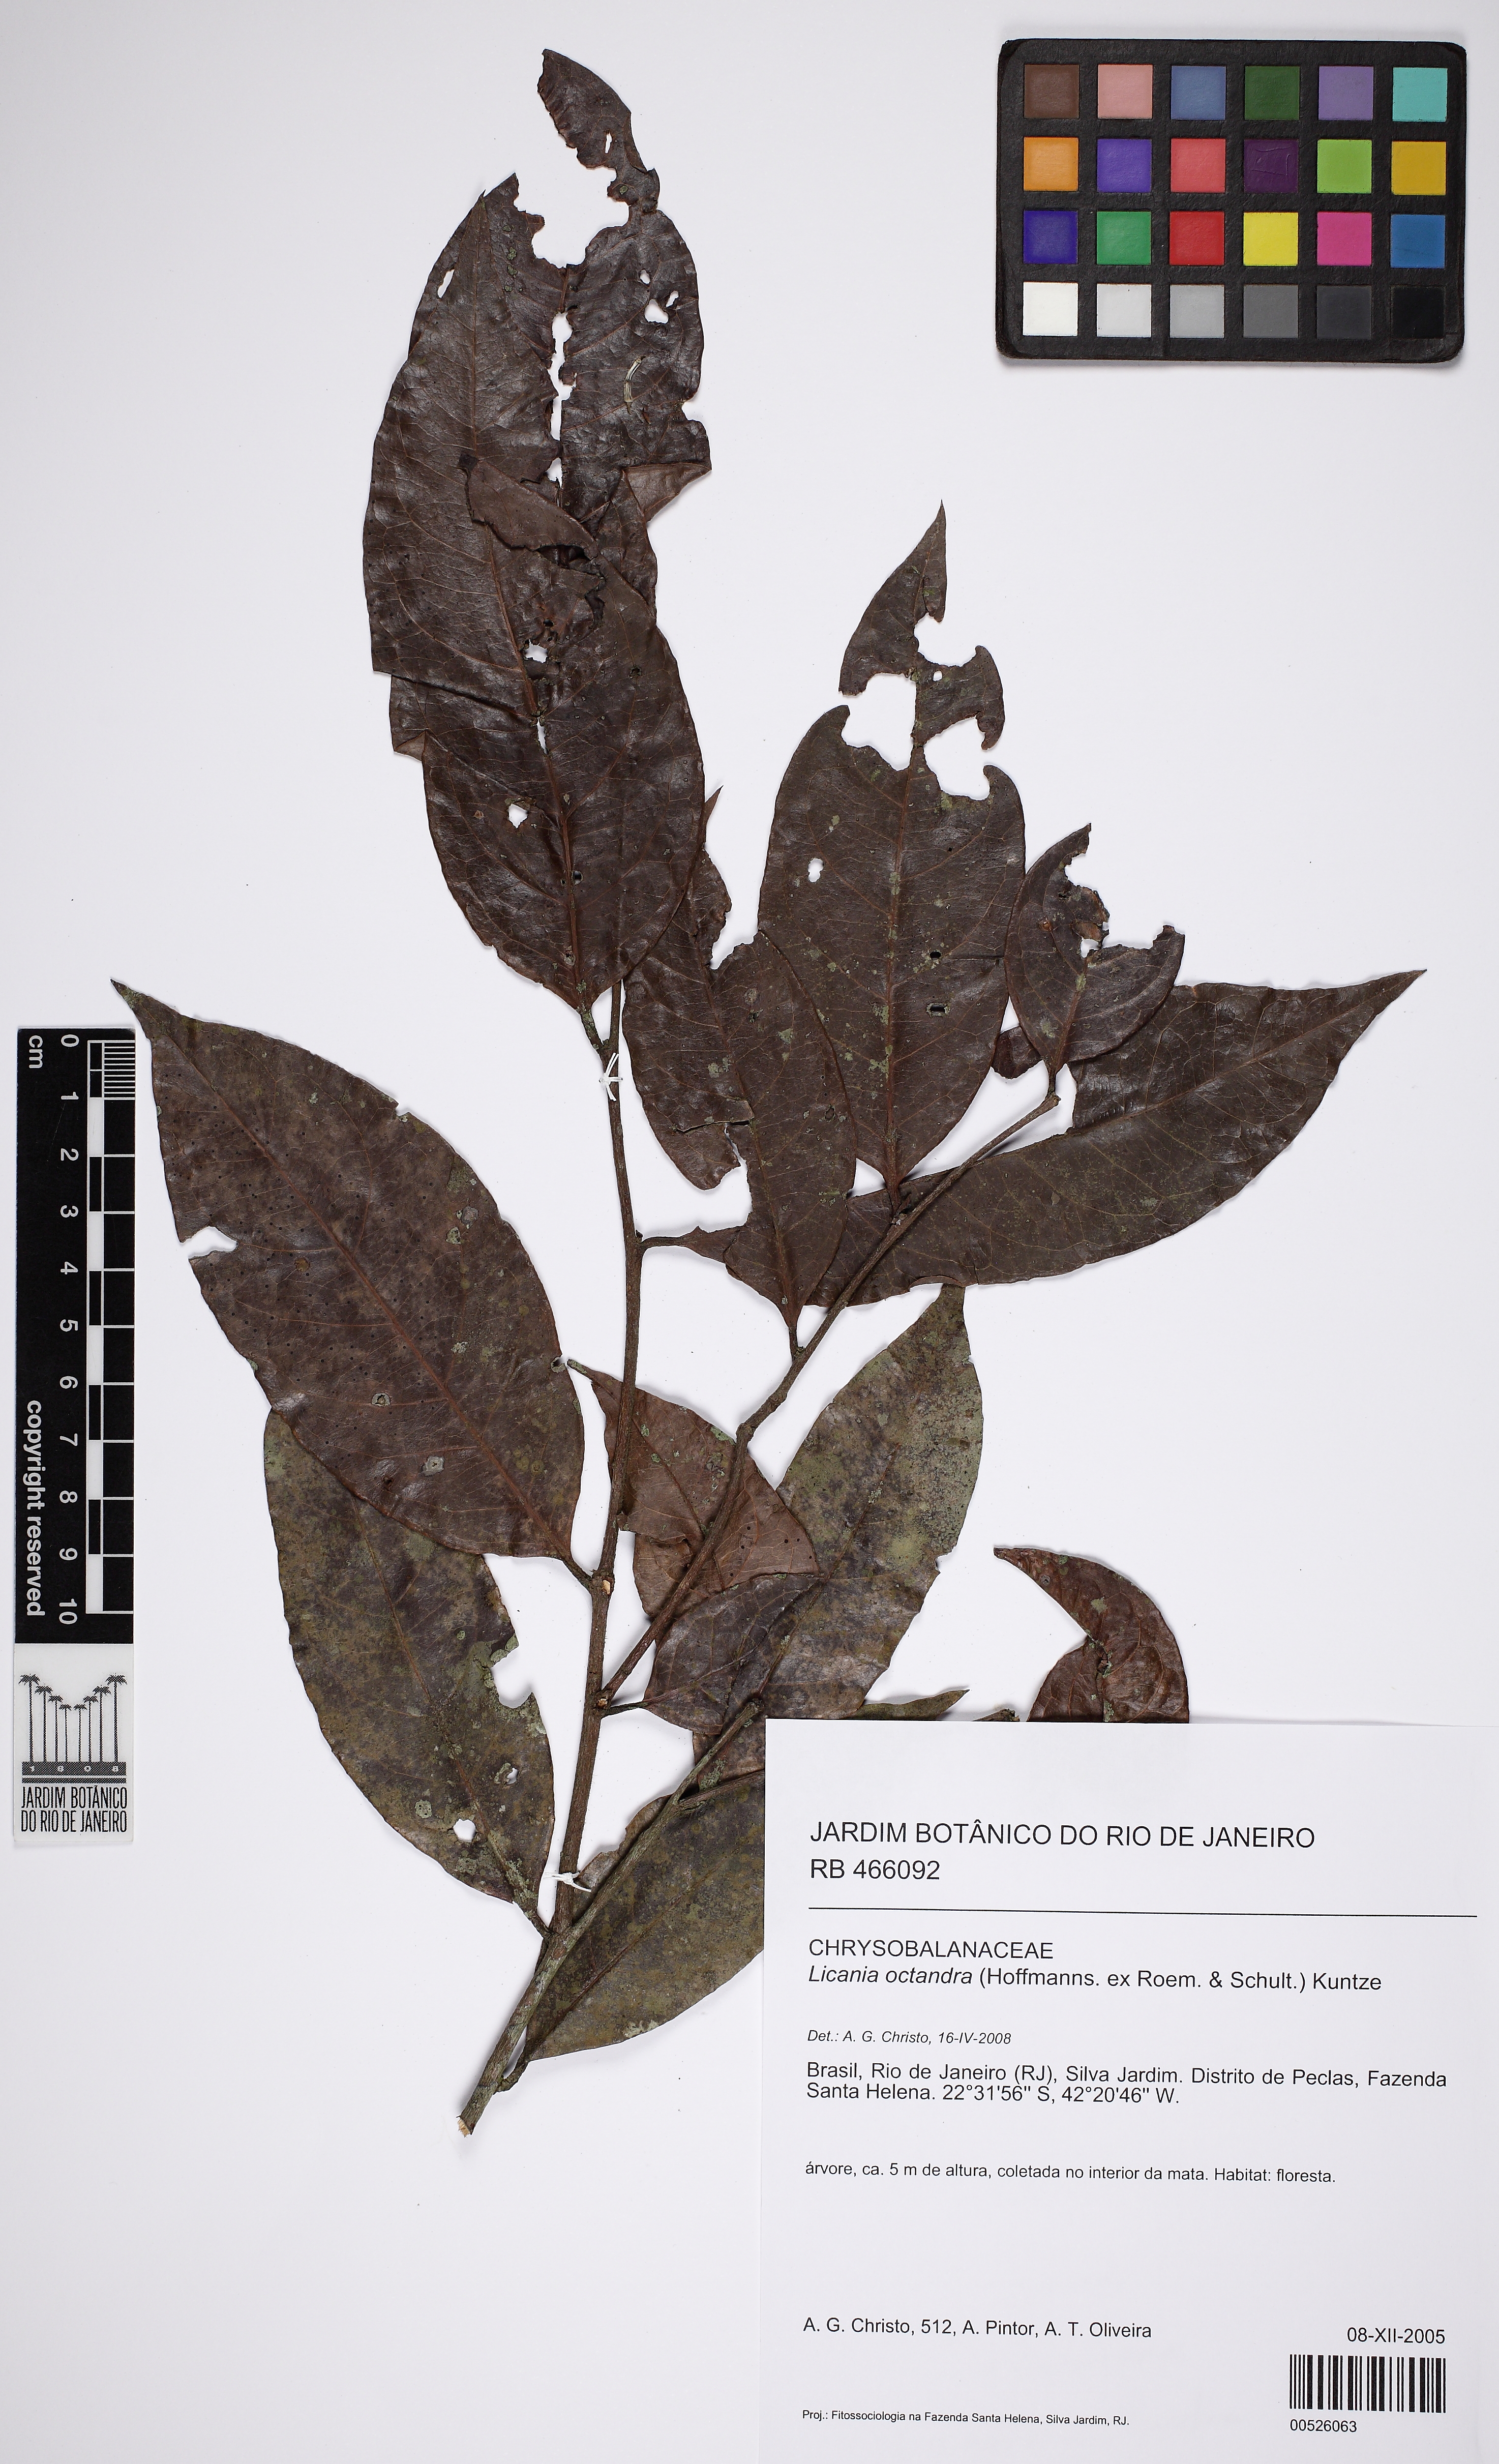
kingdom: Plantae
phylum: Tracheophyta
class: Magnoliopsida
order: Malpighiales
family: Chrysobalanaceae
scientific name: Chrysobalanaceae
